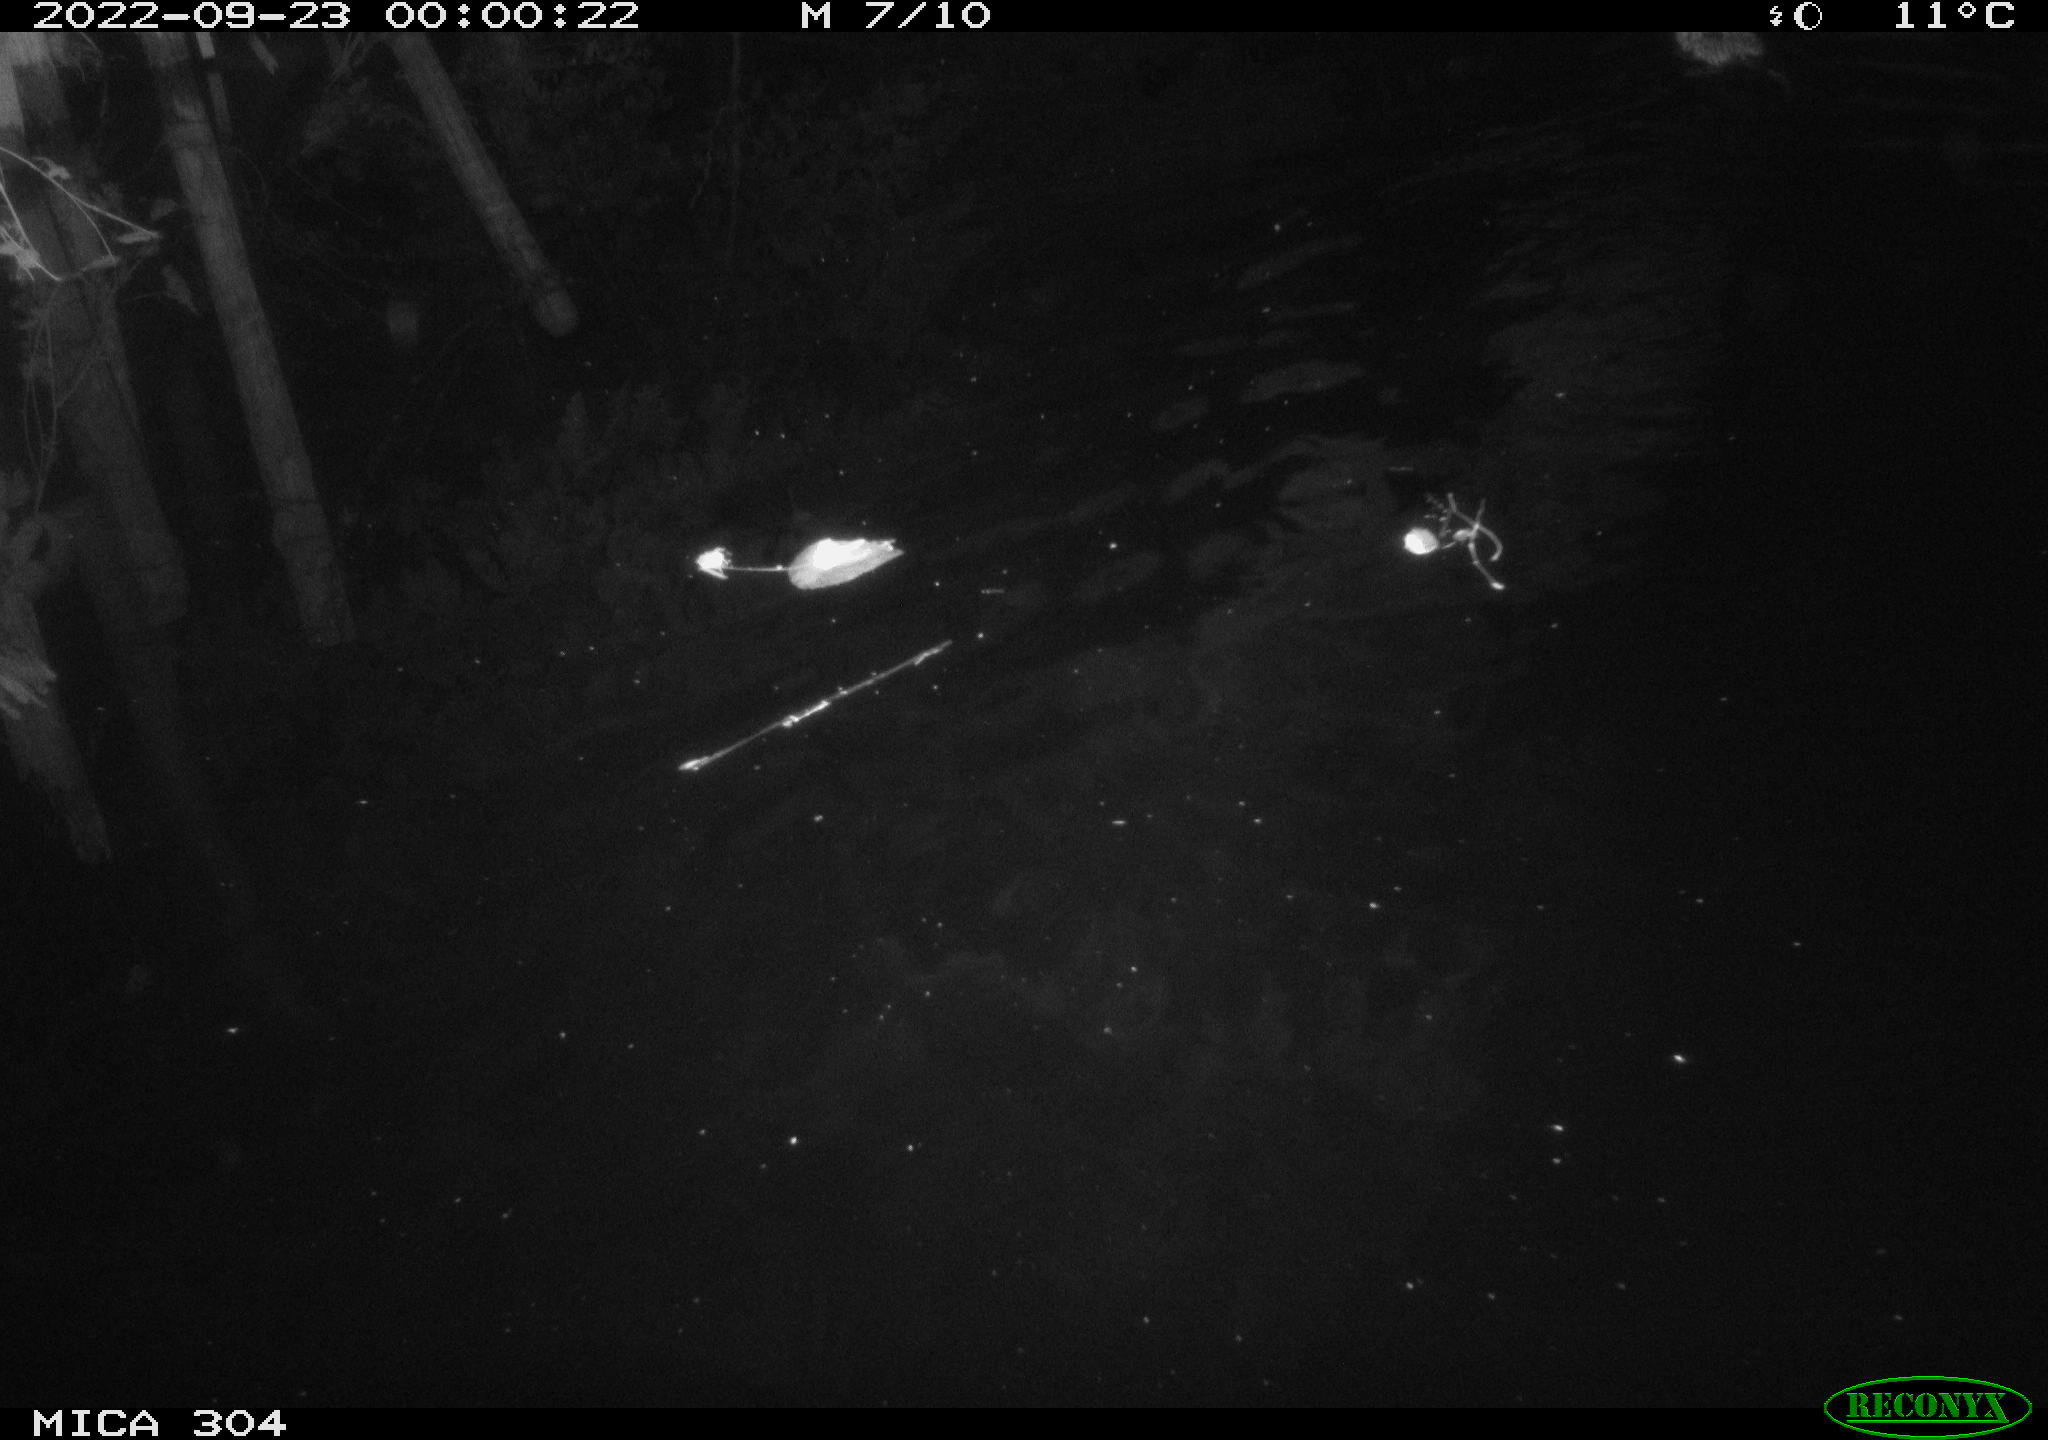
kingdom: Animalia
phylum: Chordata
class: Mammalia
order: Rodentia
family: Cricetidae
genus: Ondatra
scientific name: Ondatra zibethicus
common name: Muskrat
